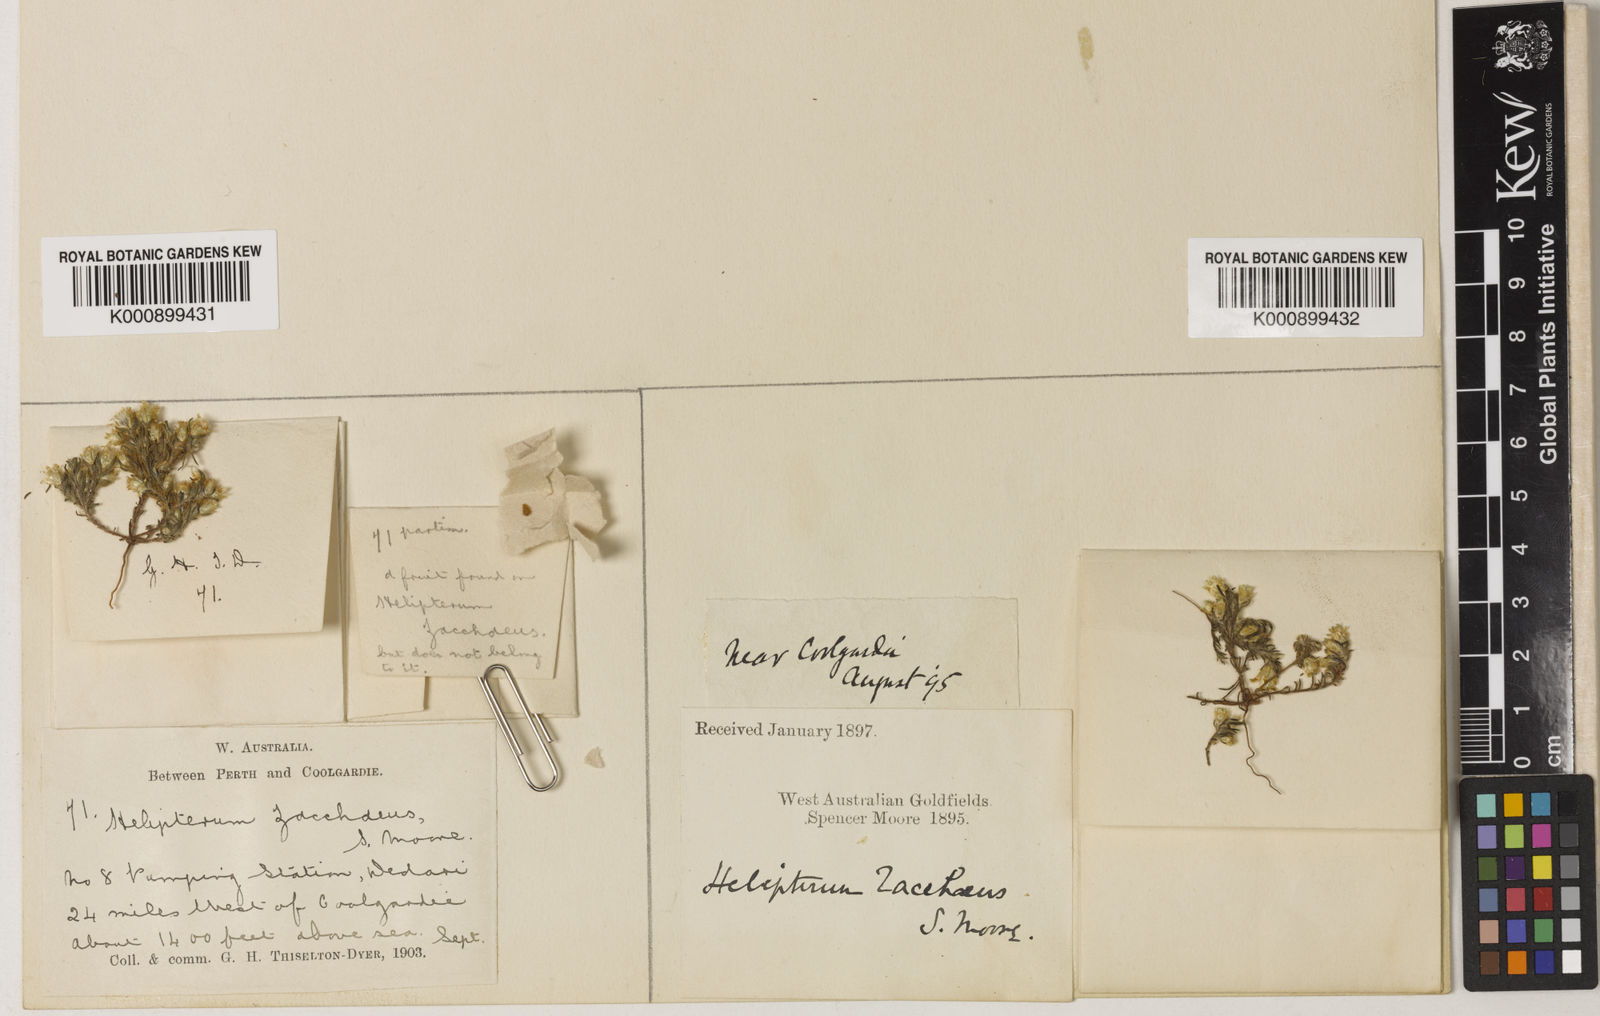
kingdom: Plantae
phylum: Tracheophyta
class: Magnoliopsida
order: Asterales
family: Asteraceae
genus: Hyalosperma
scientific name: Hyalosperma zacchaeus
